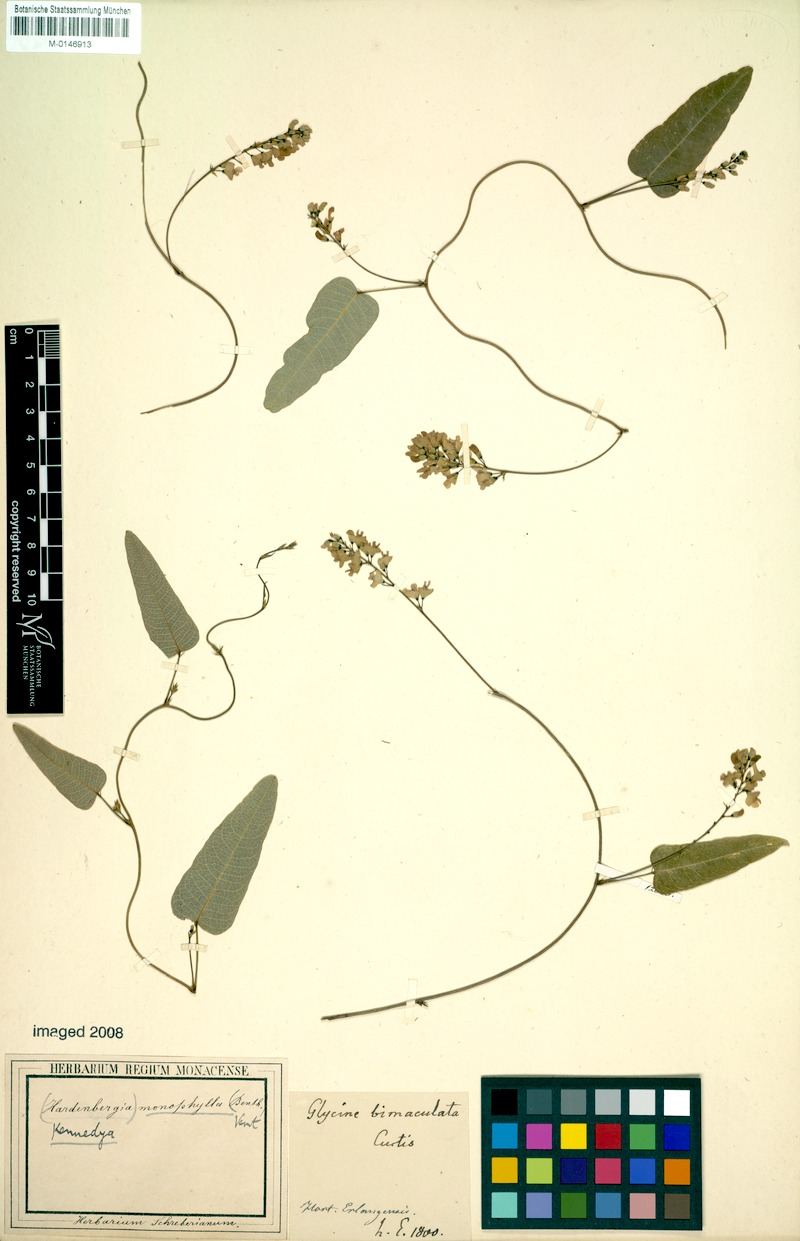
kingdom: Plantae
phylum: Tracheophyta
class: Magnoliopsida
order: Fabales
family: Fabaceae
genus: Hardenbergia
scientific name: Hardenbergia violacea
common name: Coral-pea
